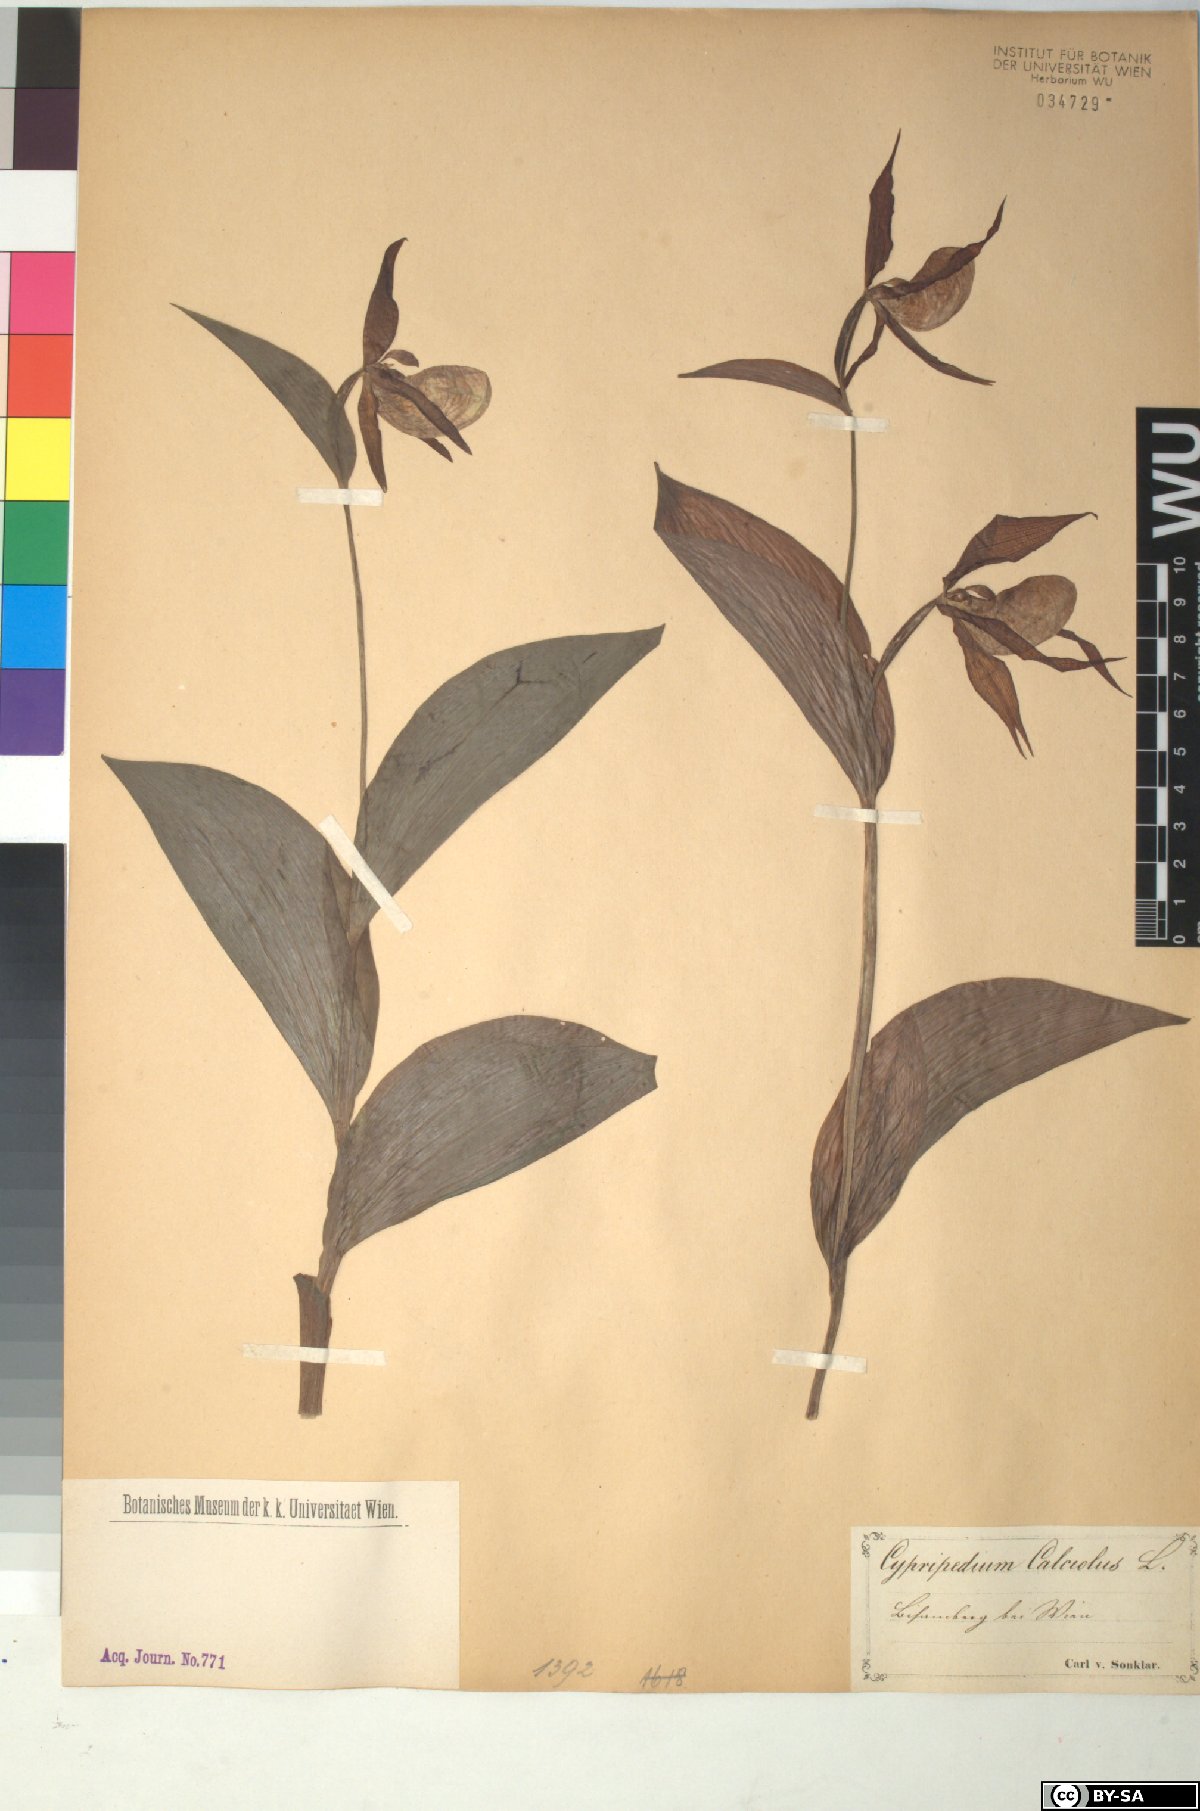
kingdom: Plantae
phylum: Tracheophyta
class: Liliopsida
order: Asparagales
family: Orchidaceae
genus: Cypripedium
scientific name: Cypripedium calceolus
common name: Lady's-slipper
